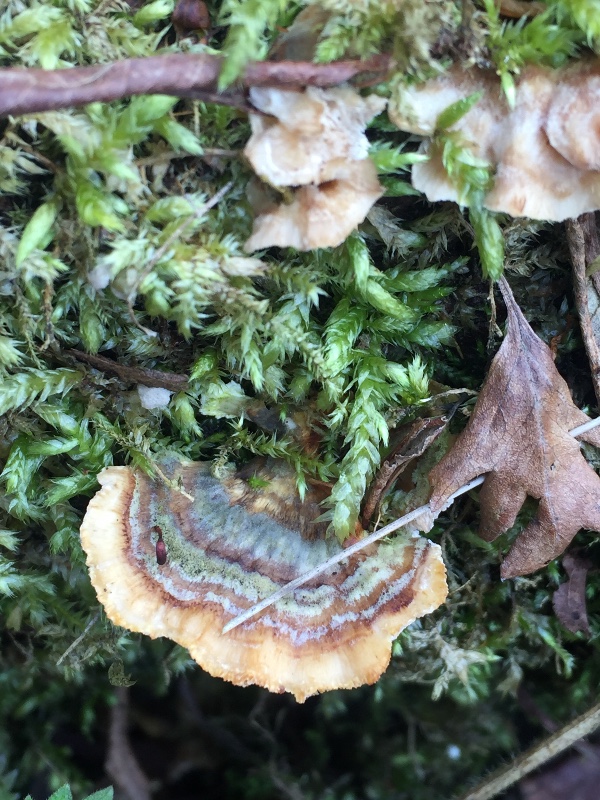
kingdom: Fungi
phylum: Basidiomycota
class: Agaricomycetes
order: Polyporales
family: Polyporaceae
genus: Trametes
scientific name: Trametes versicolor
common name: broget læderporesvamp
